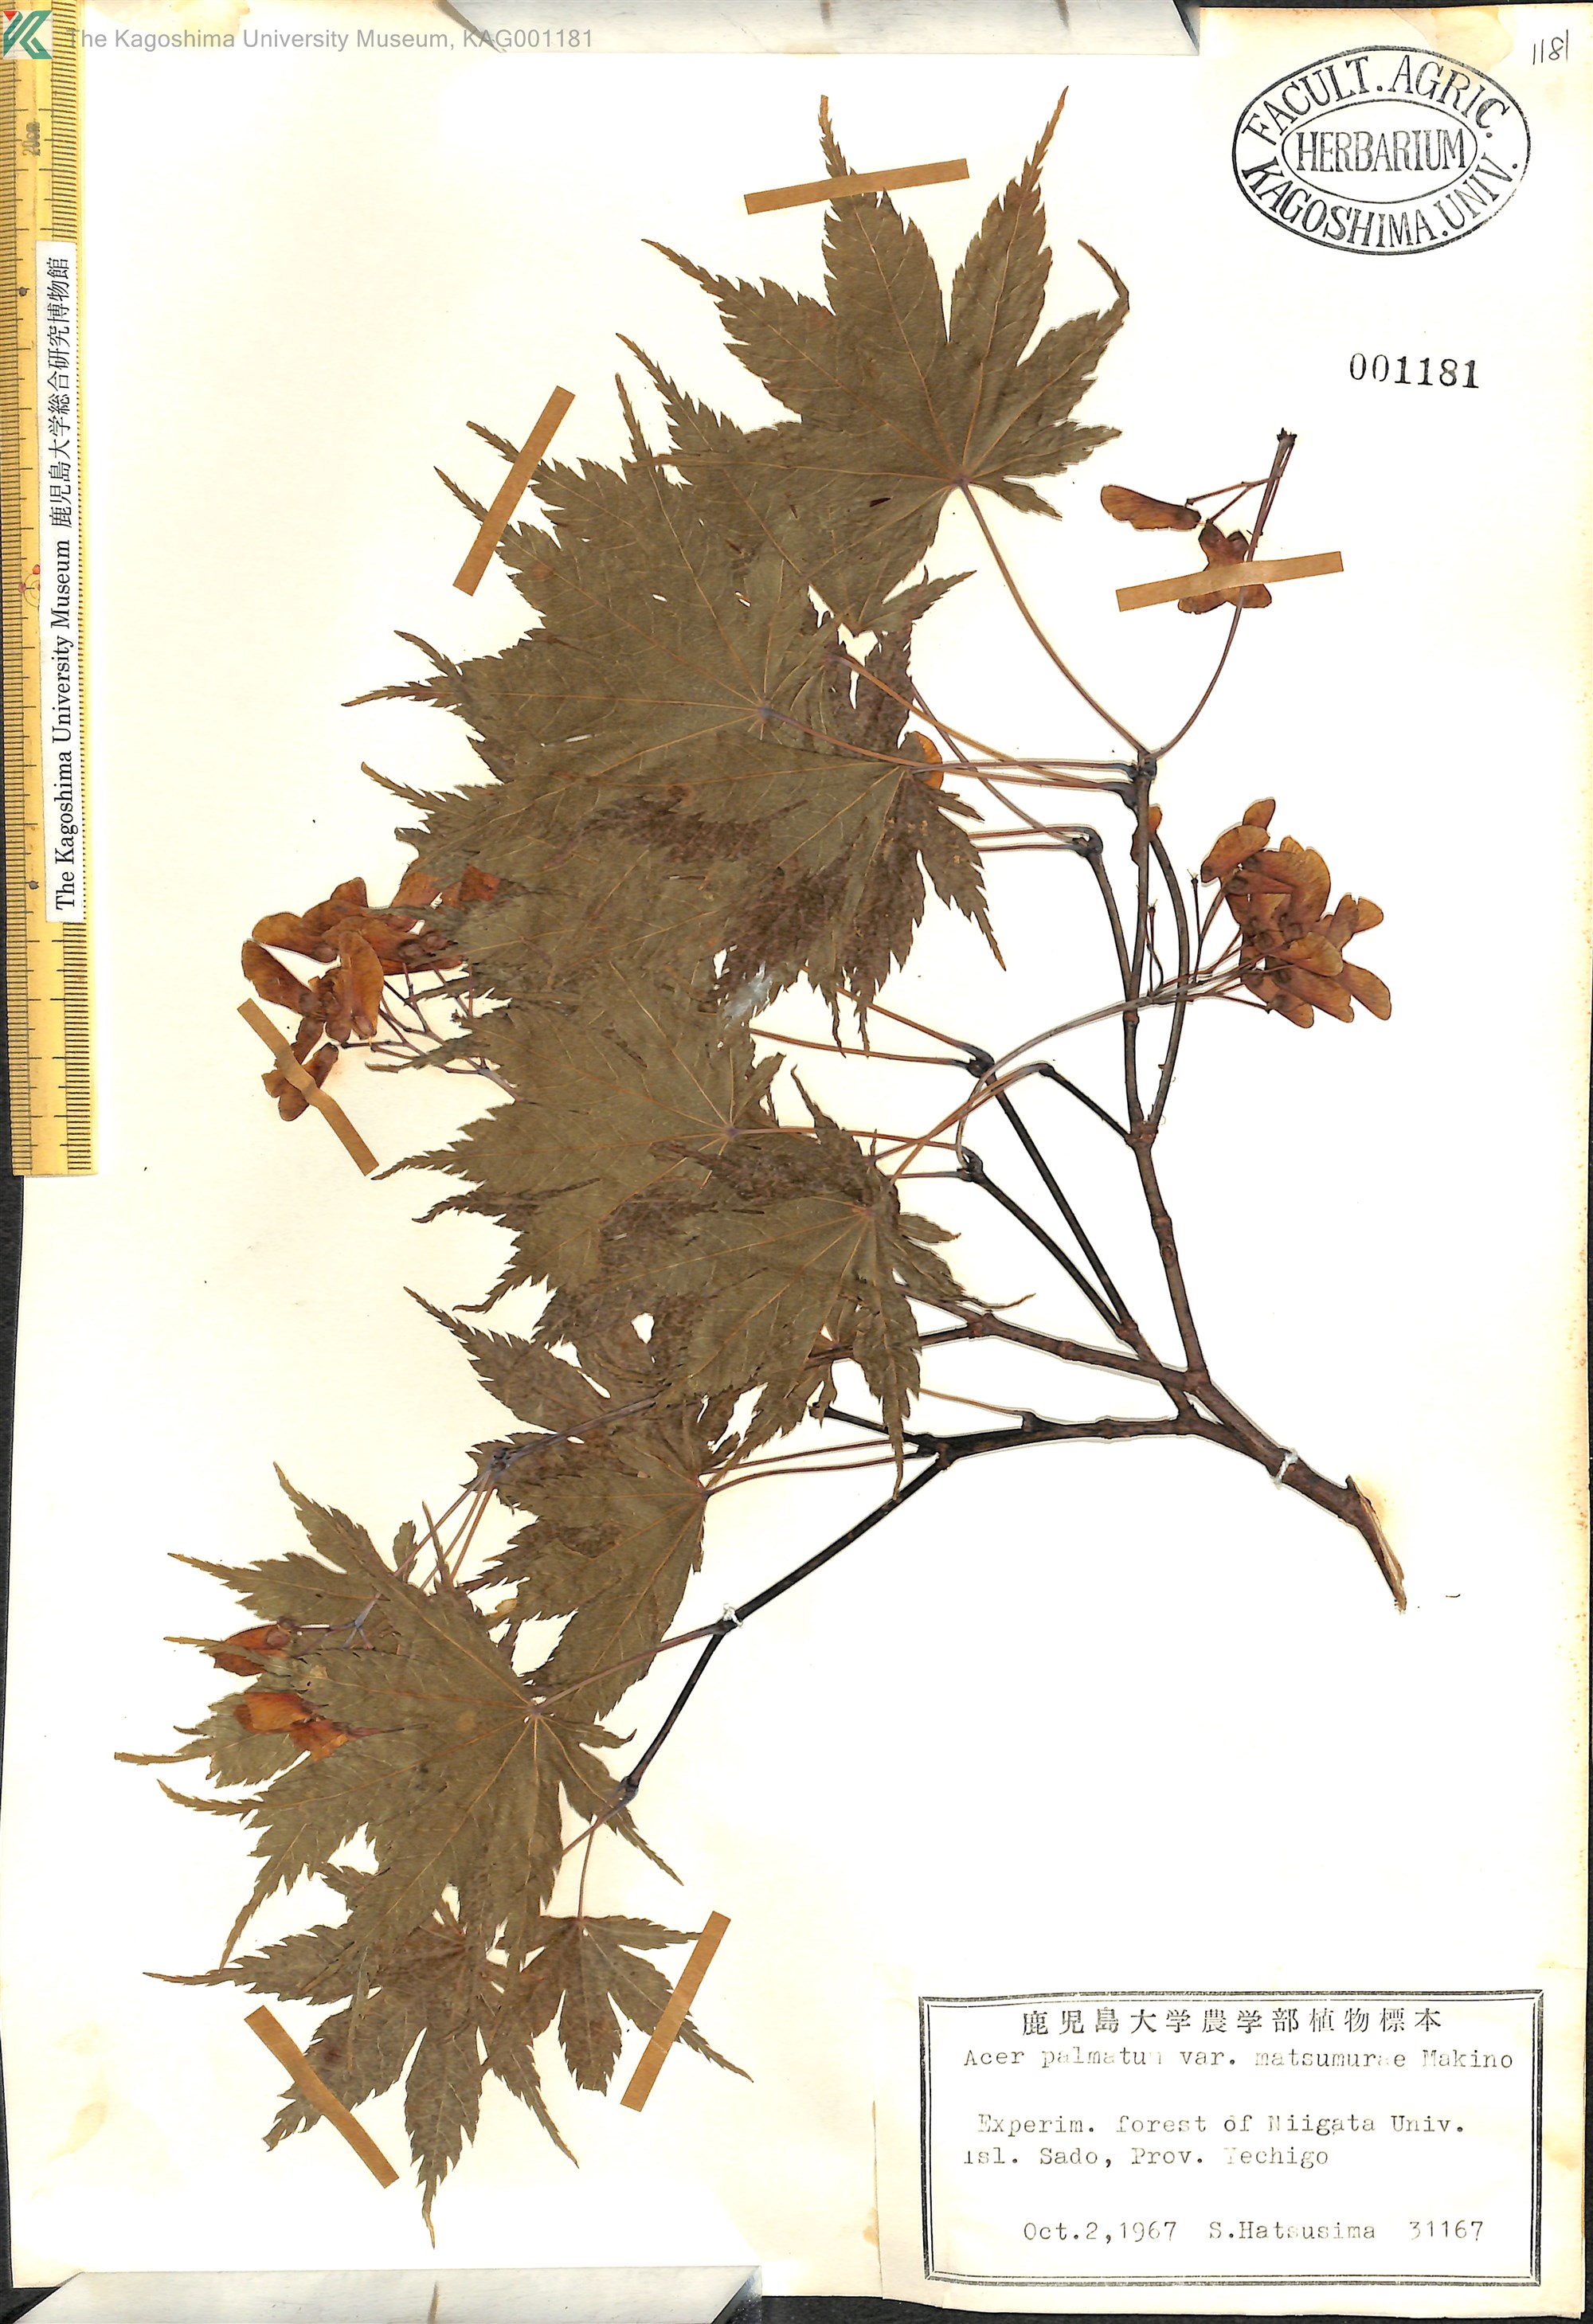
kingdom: Plantae
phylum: Tracheophyta
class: Magnoliopsida
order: Sapindales
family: Sapindaceae
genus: Acer
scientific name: Acer palmatum
